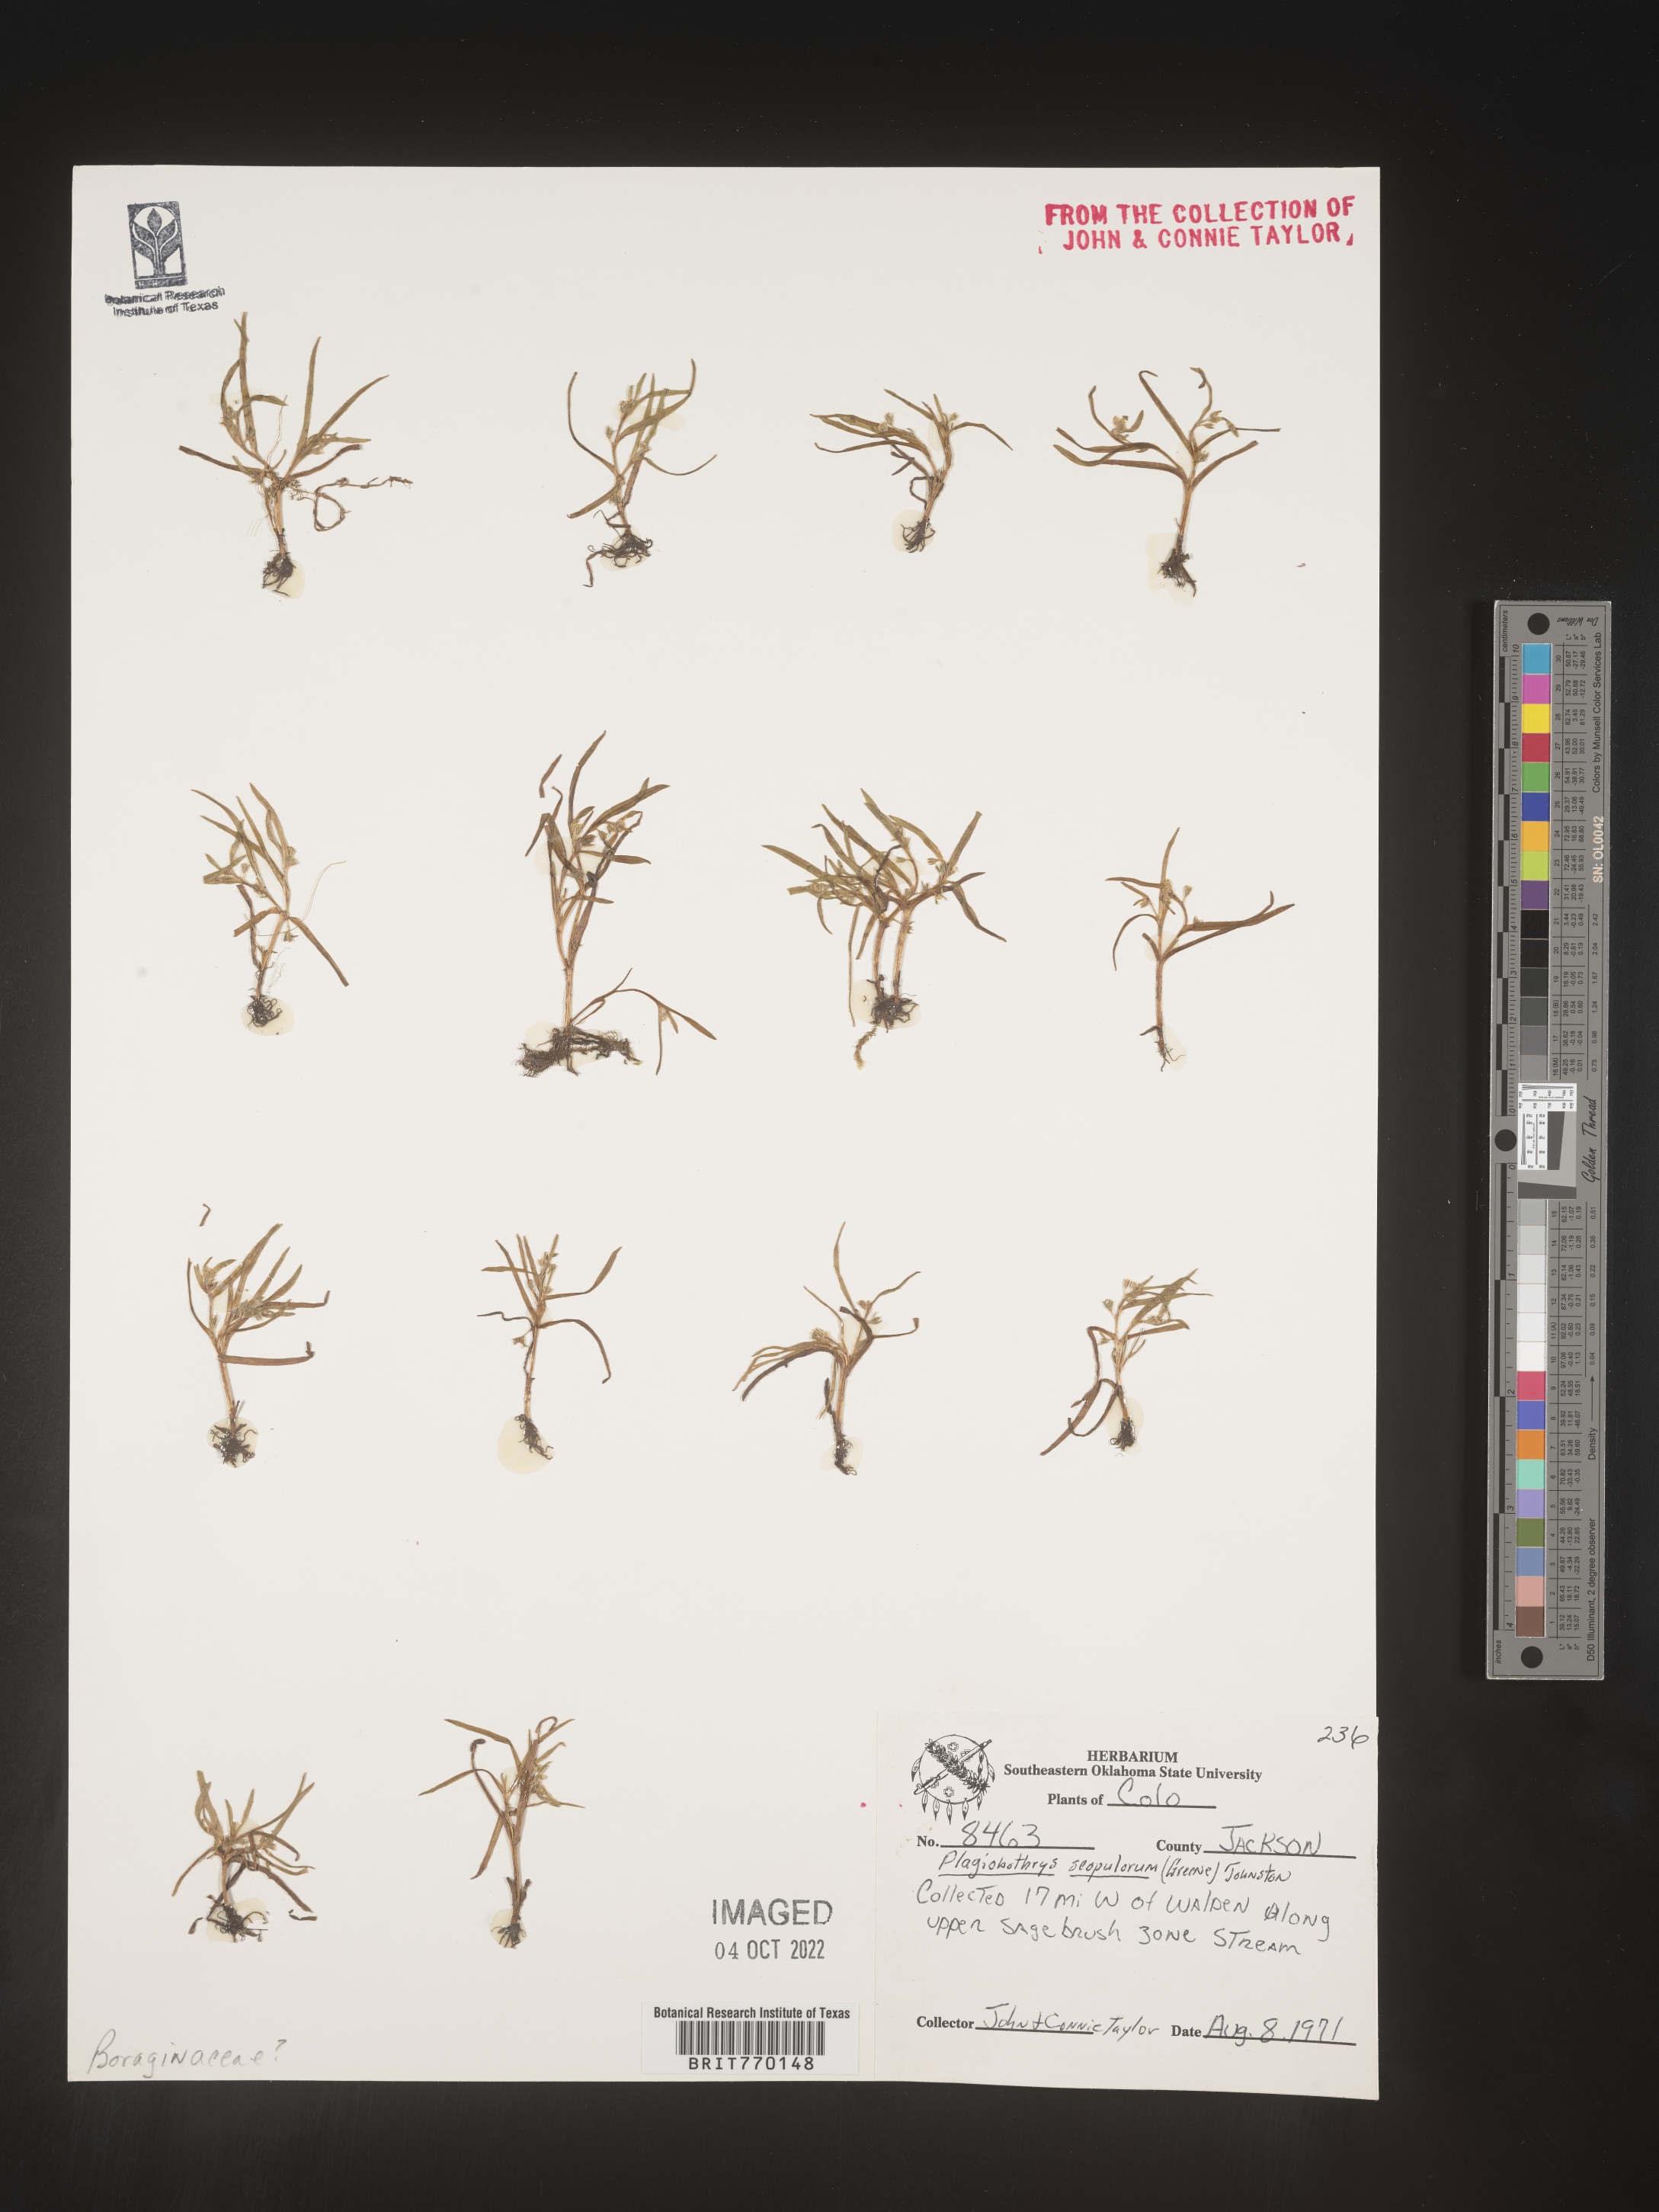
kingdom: Plantae
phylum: Tracheophyta
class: Magnoliopsida
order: Boraginales
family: Boraginaceae
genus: Plagiobothrys
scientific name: Plagiobothrys
